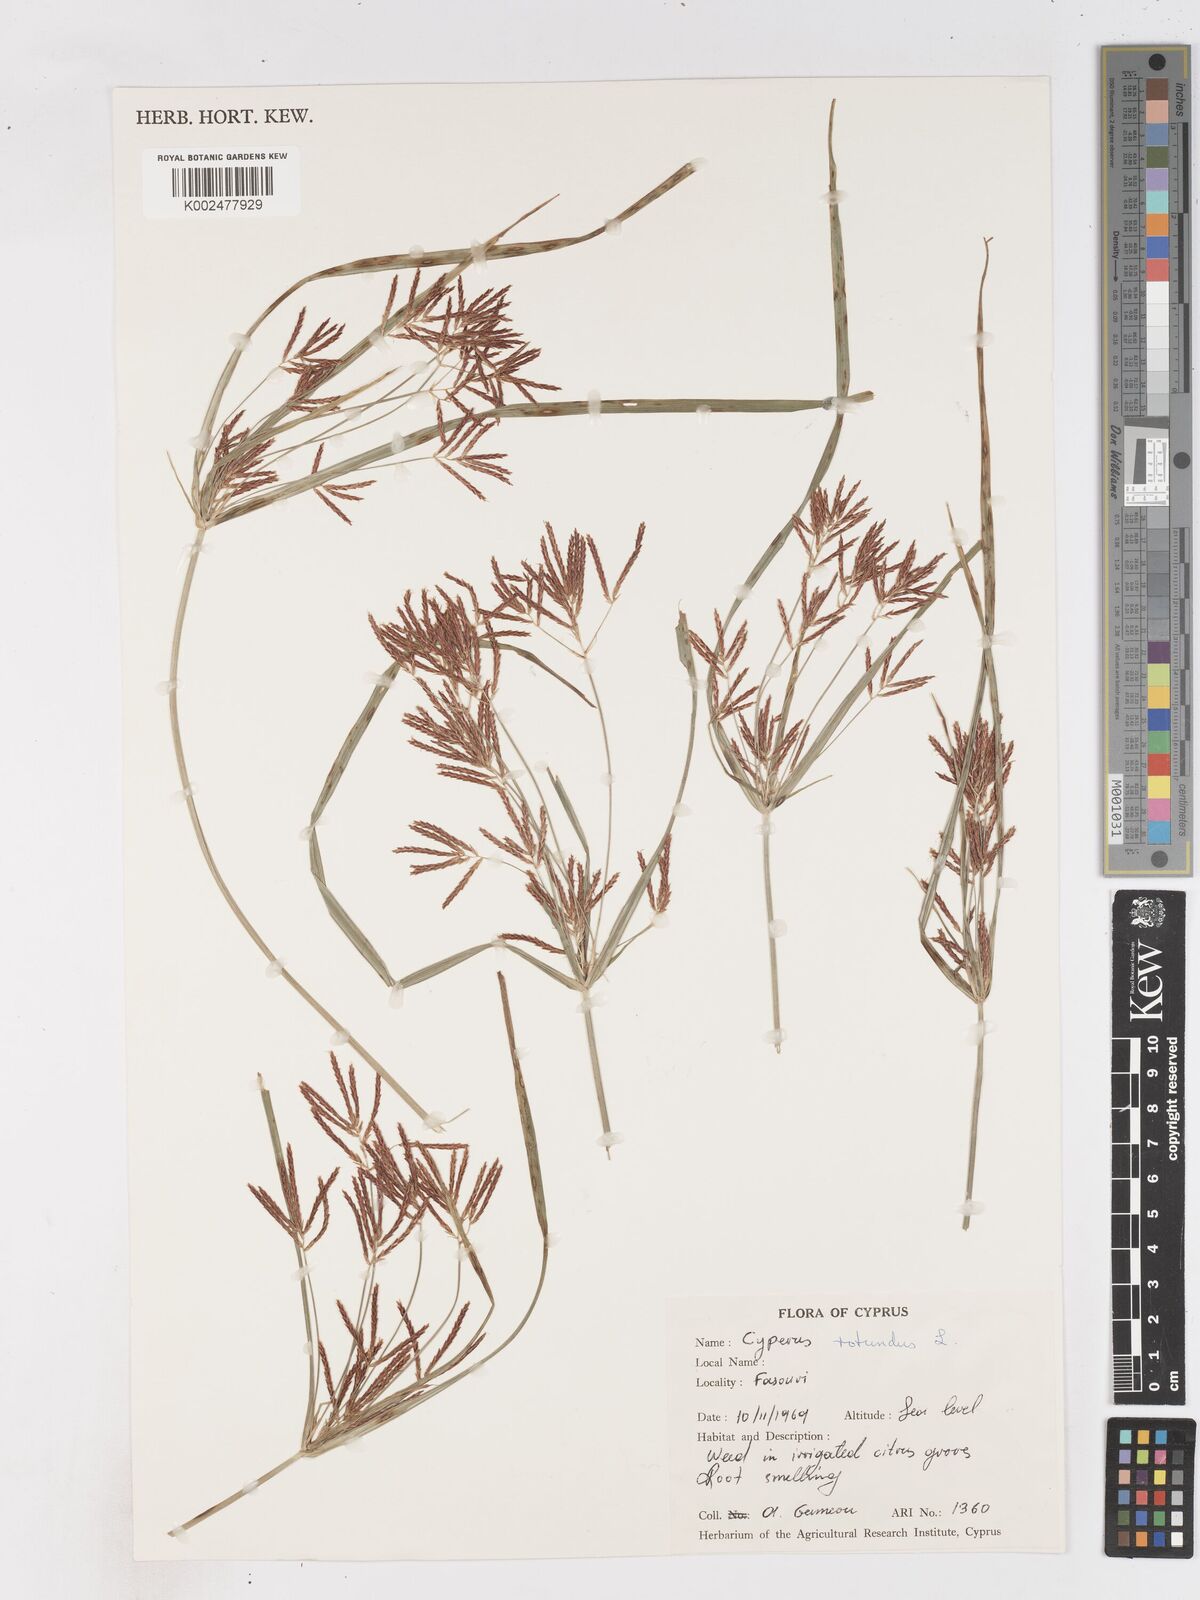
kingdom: Plantae
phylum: Tracheophyta
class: Liliopsida
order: Poales
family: Cyperaceae
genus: Cyperus
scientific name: Cyperus rotundus
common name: Nutgrass
